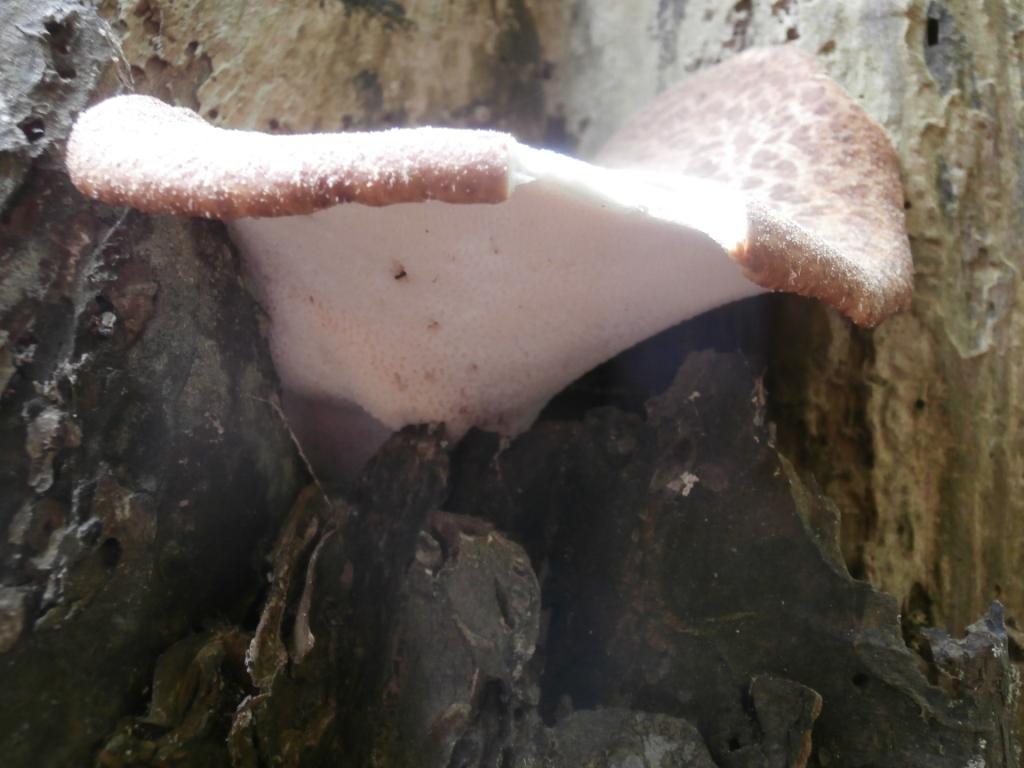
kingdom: Fungi
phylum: Basidiomycota
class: Agaricomycetes
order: Polyporales
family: Polyporaceae
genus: Cerioporus
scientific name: Cerioporus squamosus
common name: skællet stilkporesvamp
